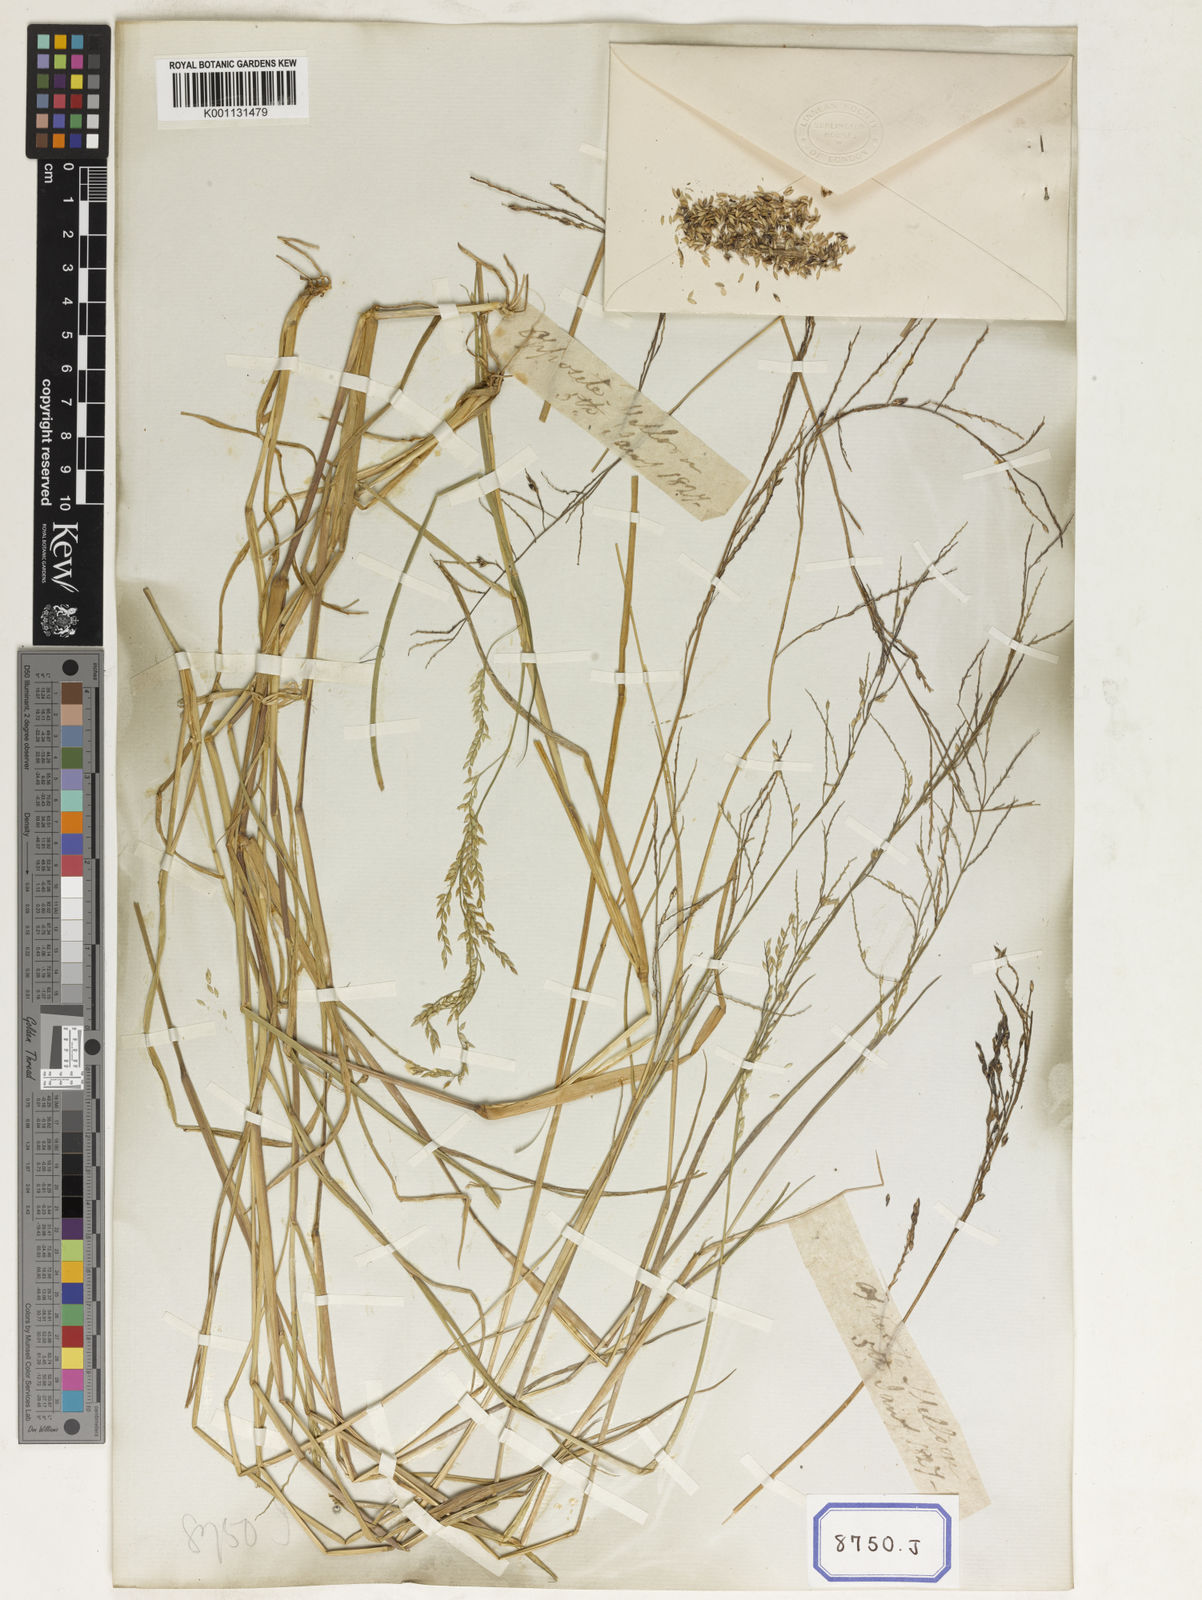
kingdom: Plantae
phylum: Tracheophyta
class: Liliopsida
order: Poales
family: Poaceae
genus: Eriochloa
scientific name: Eriochloa procera
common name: Spring grass
